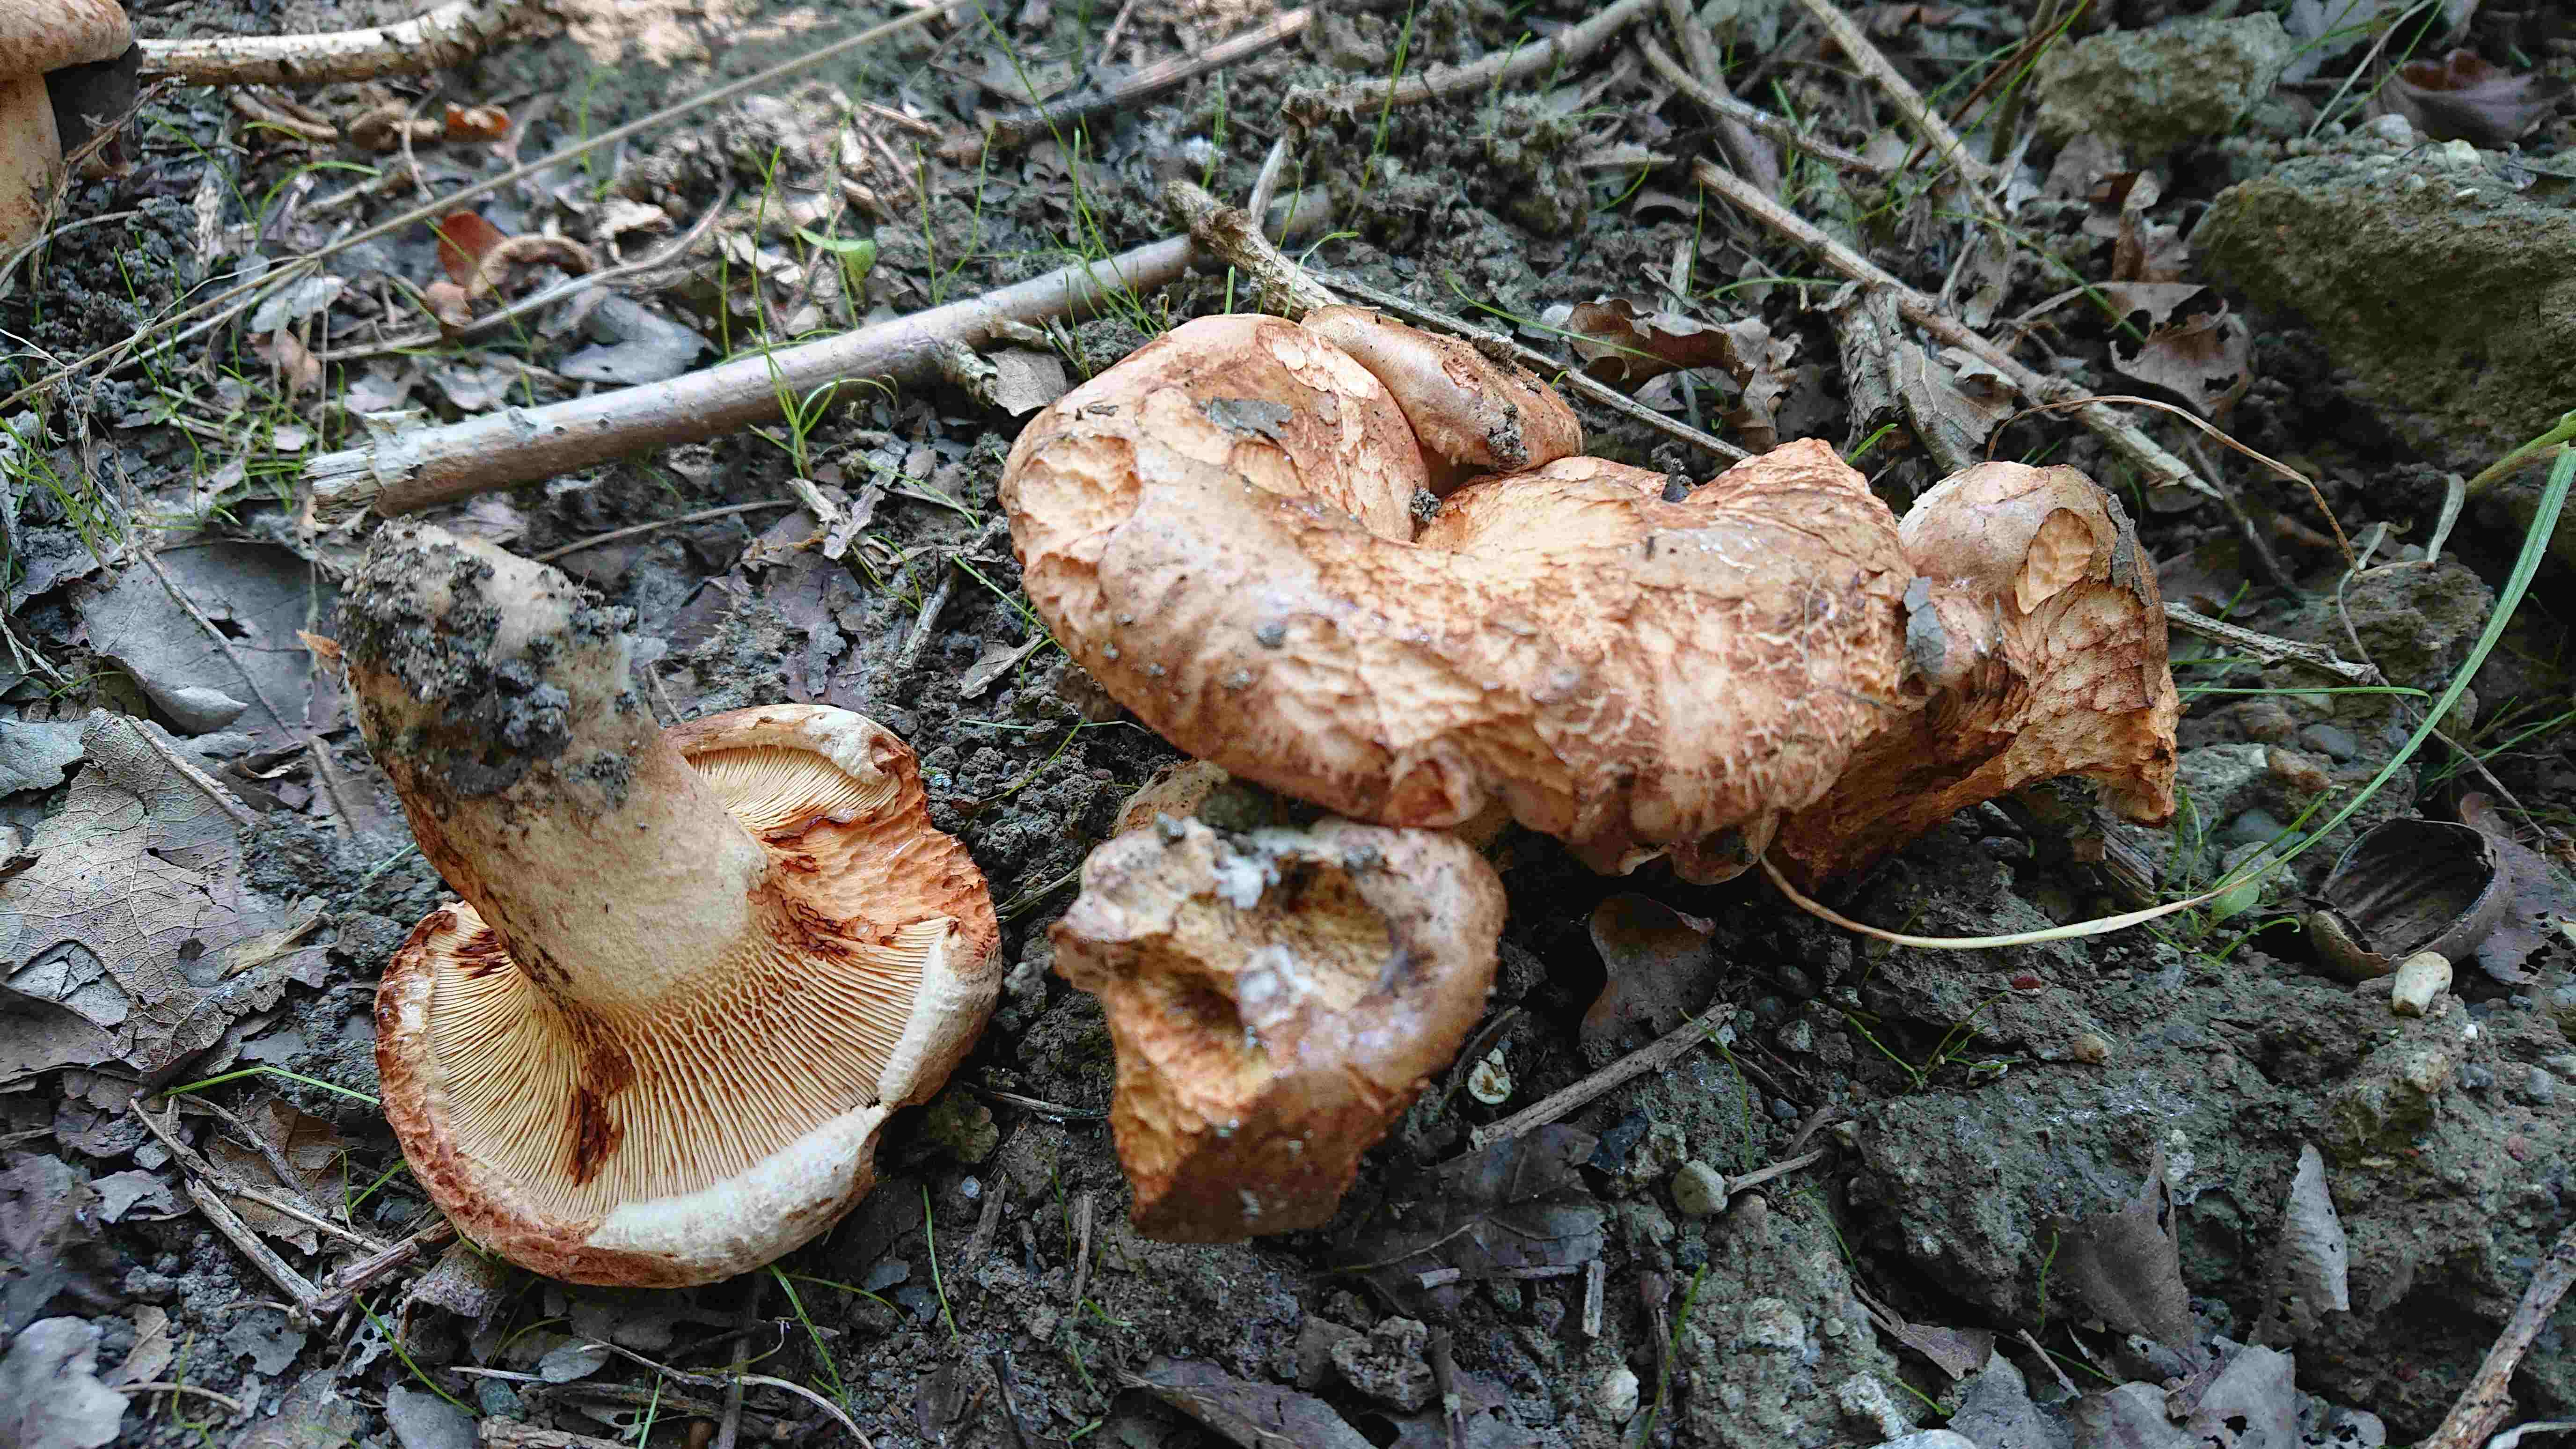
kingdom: Fungi
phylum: Basidiomycota
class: Agaricomycetes
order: Boletales
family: Paxillaceae
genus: Paxillus
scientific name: Paxillus
